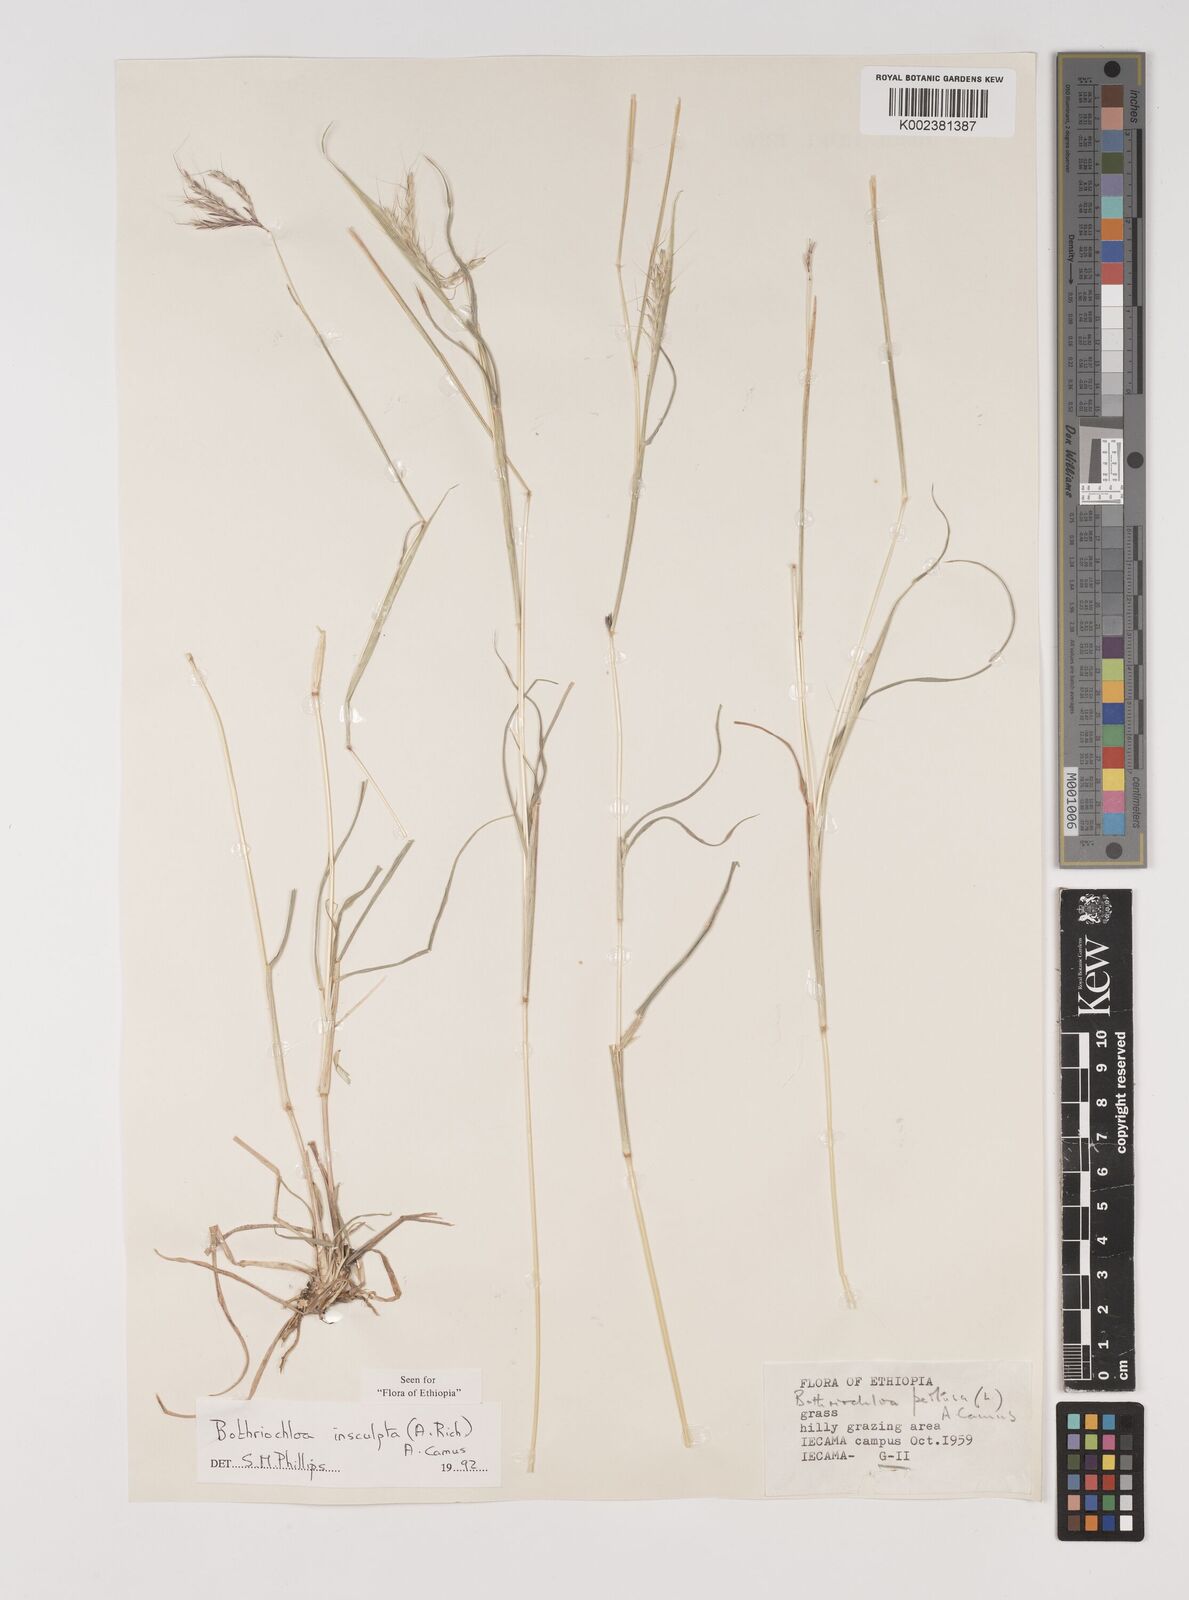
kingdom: Plantae
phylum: Tracheophyta
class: Liliopsida
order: Poales
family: Poaceae
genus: Bothriochloa
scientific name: Bothriochloa insculpta
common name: Creeping-bluegrass
